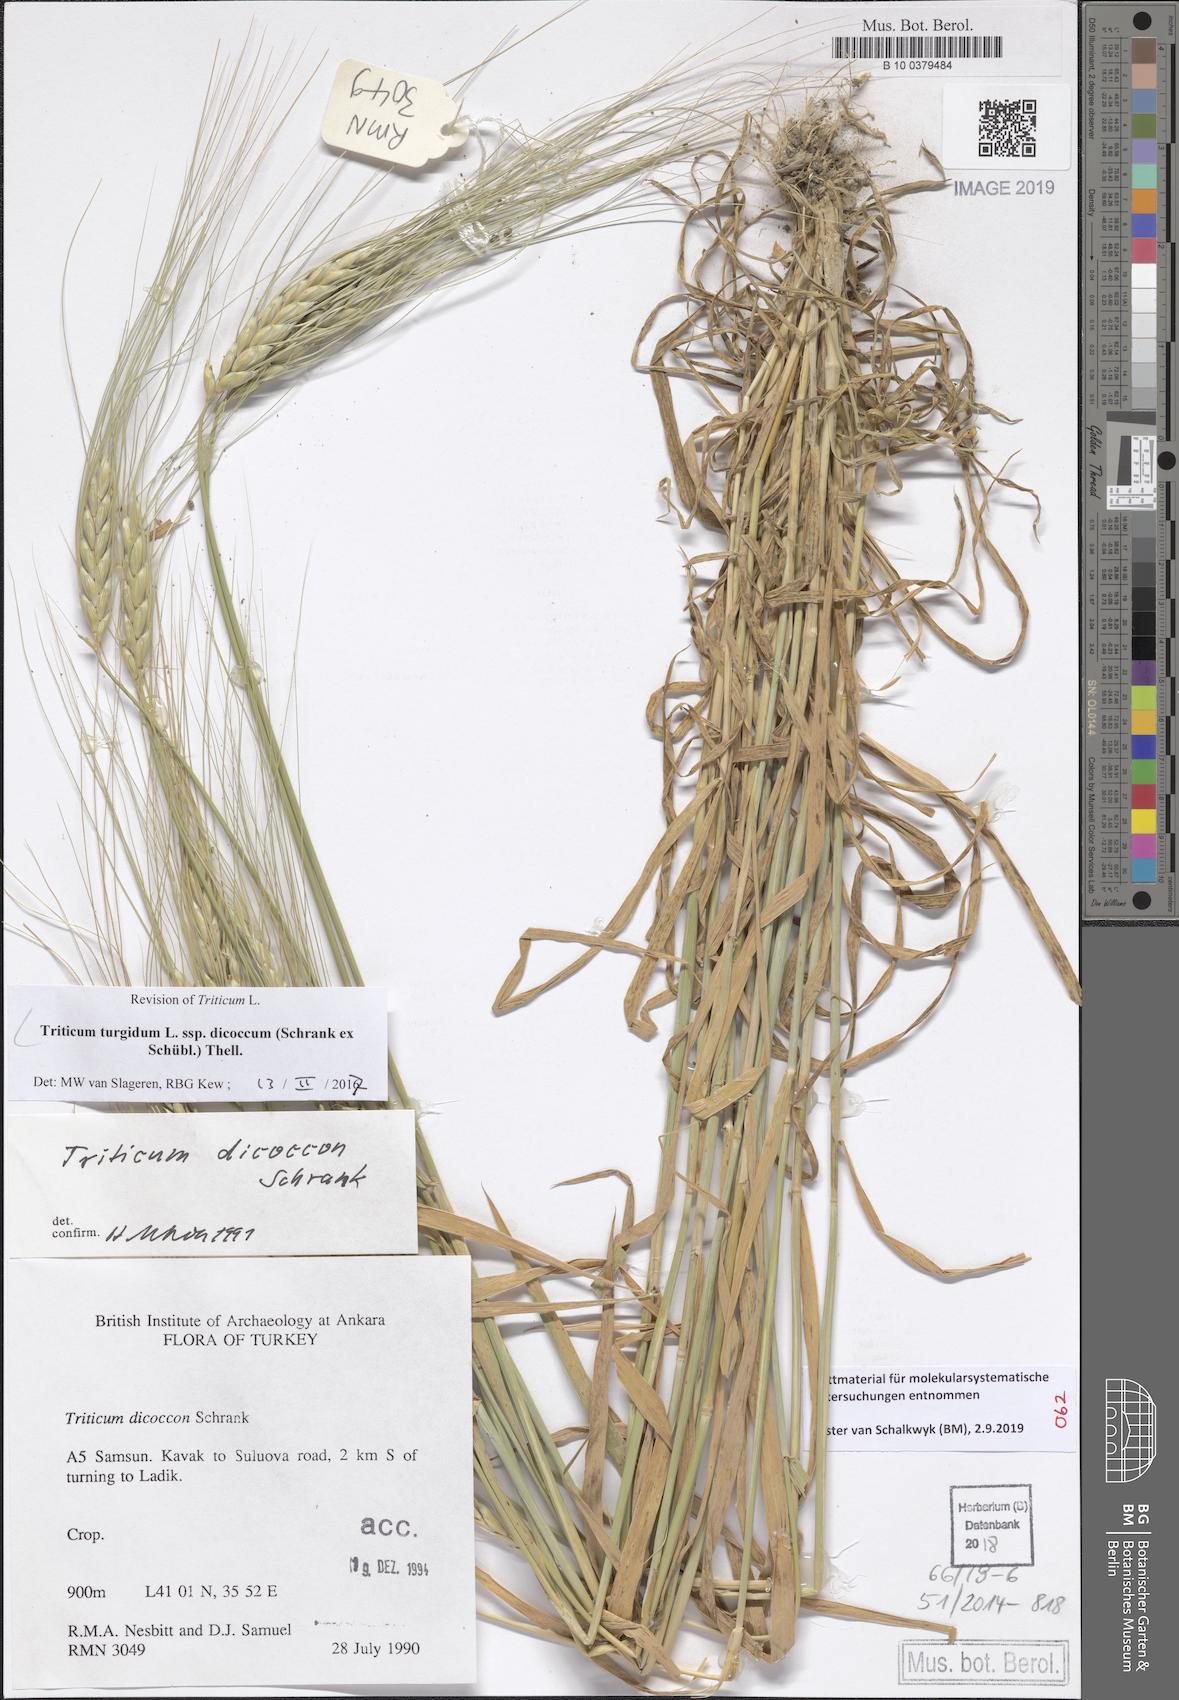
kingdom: Plantae
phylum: Tracheophyta
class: Liliopsida
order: Poales
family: Poaceae
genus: Triticum
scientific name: Triticum turgidum
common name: Rivet wheat
